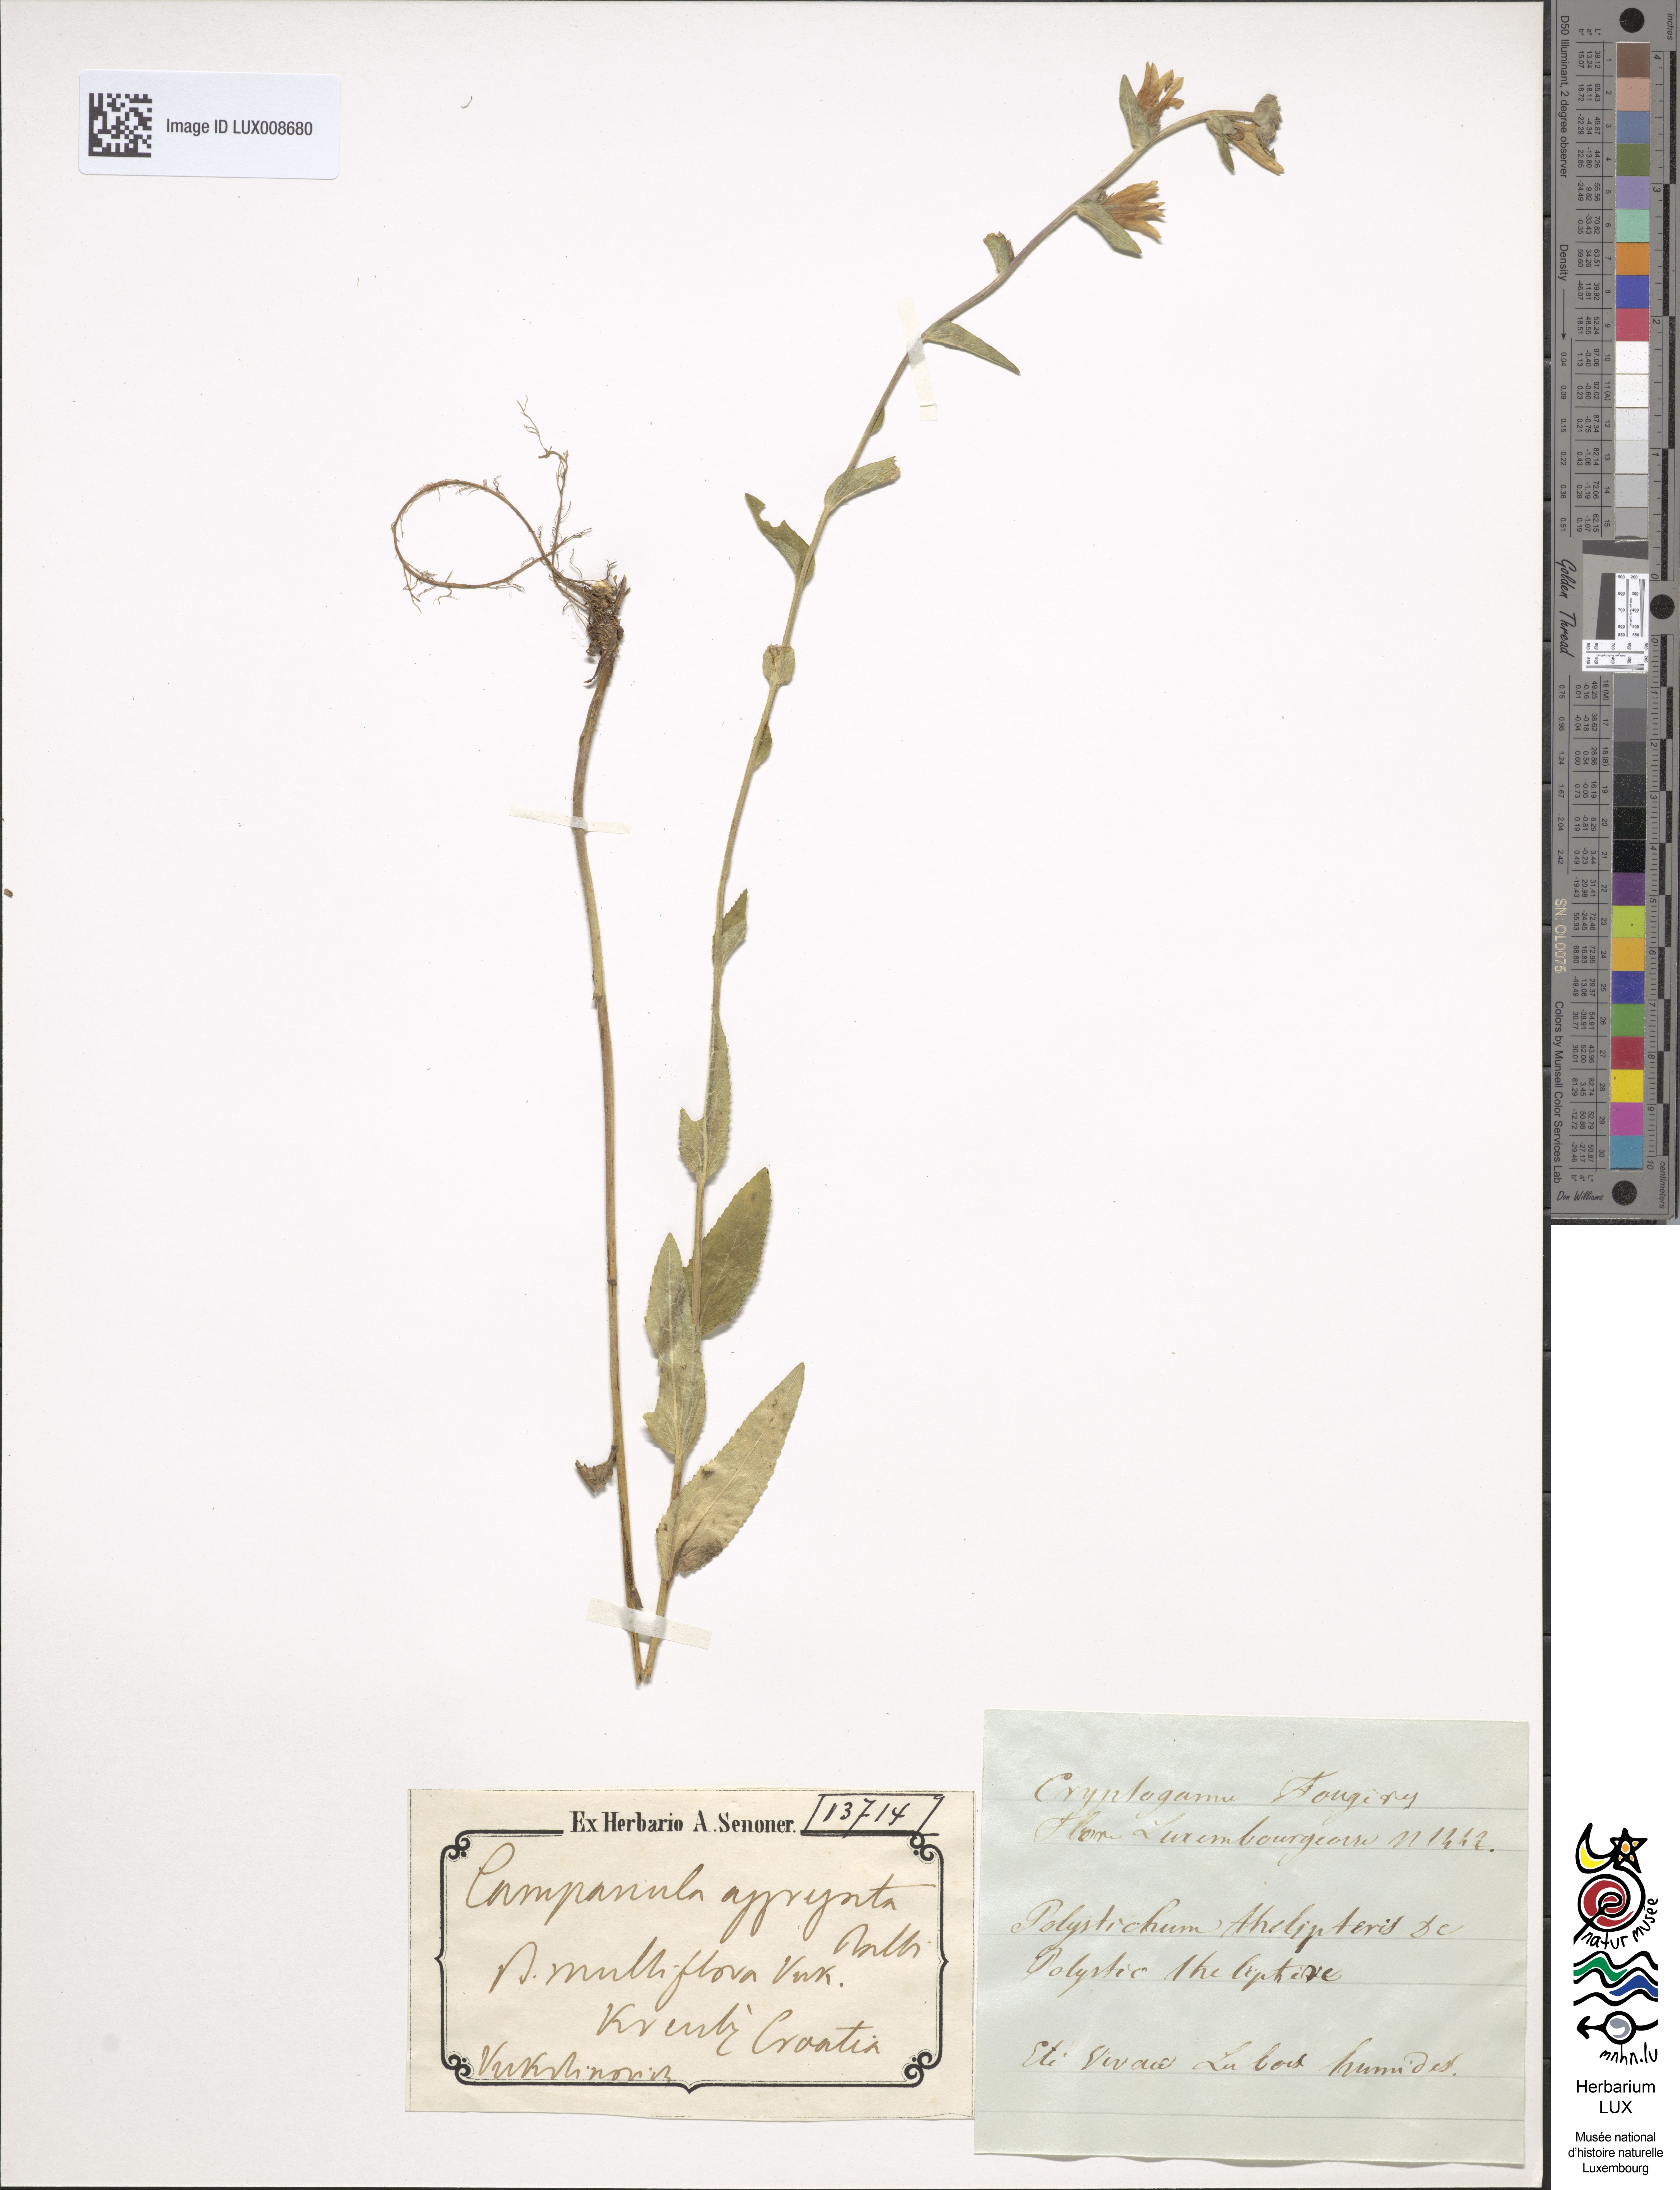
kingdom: Plantae
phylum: Tracheophyta
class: Magnoliopsida
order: Asterales
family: Campanulaceae
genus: Campanula
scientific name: Campanula glomerata
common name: Clustered bellflower
